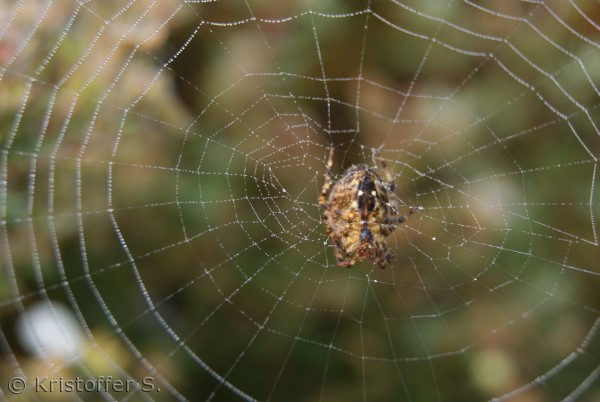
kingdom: Animalia
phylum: Arthropoda
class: Arachnida
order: Araneae
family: Araneidae
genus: Araneus
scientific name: Araneus diadematus
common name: Korsedderkop
